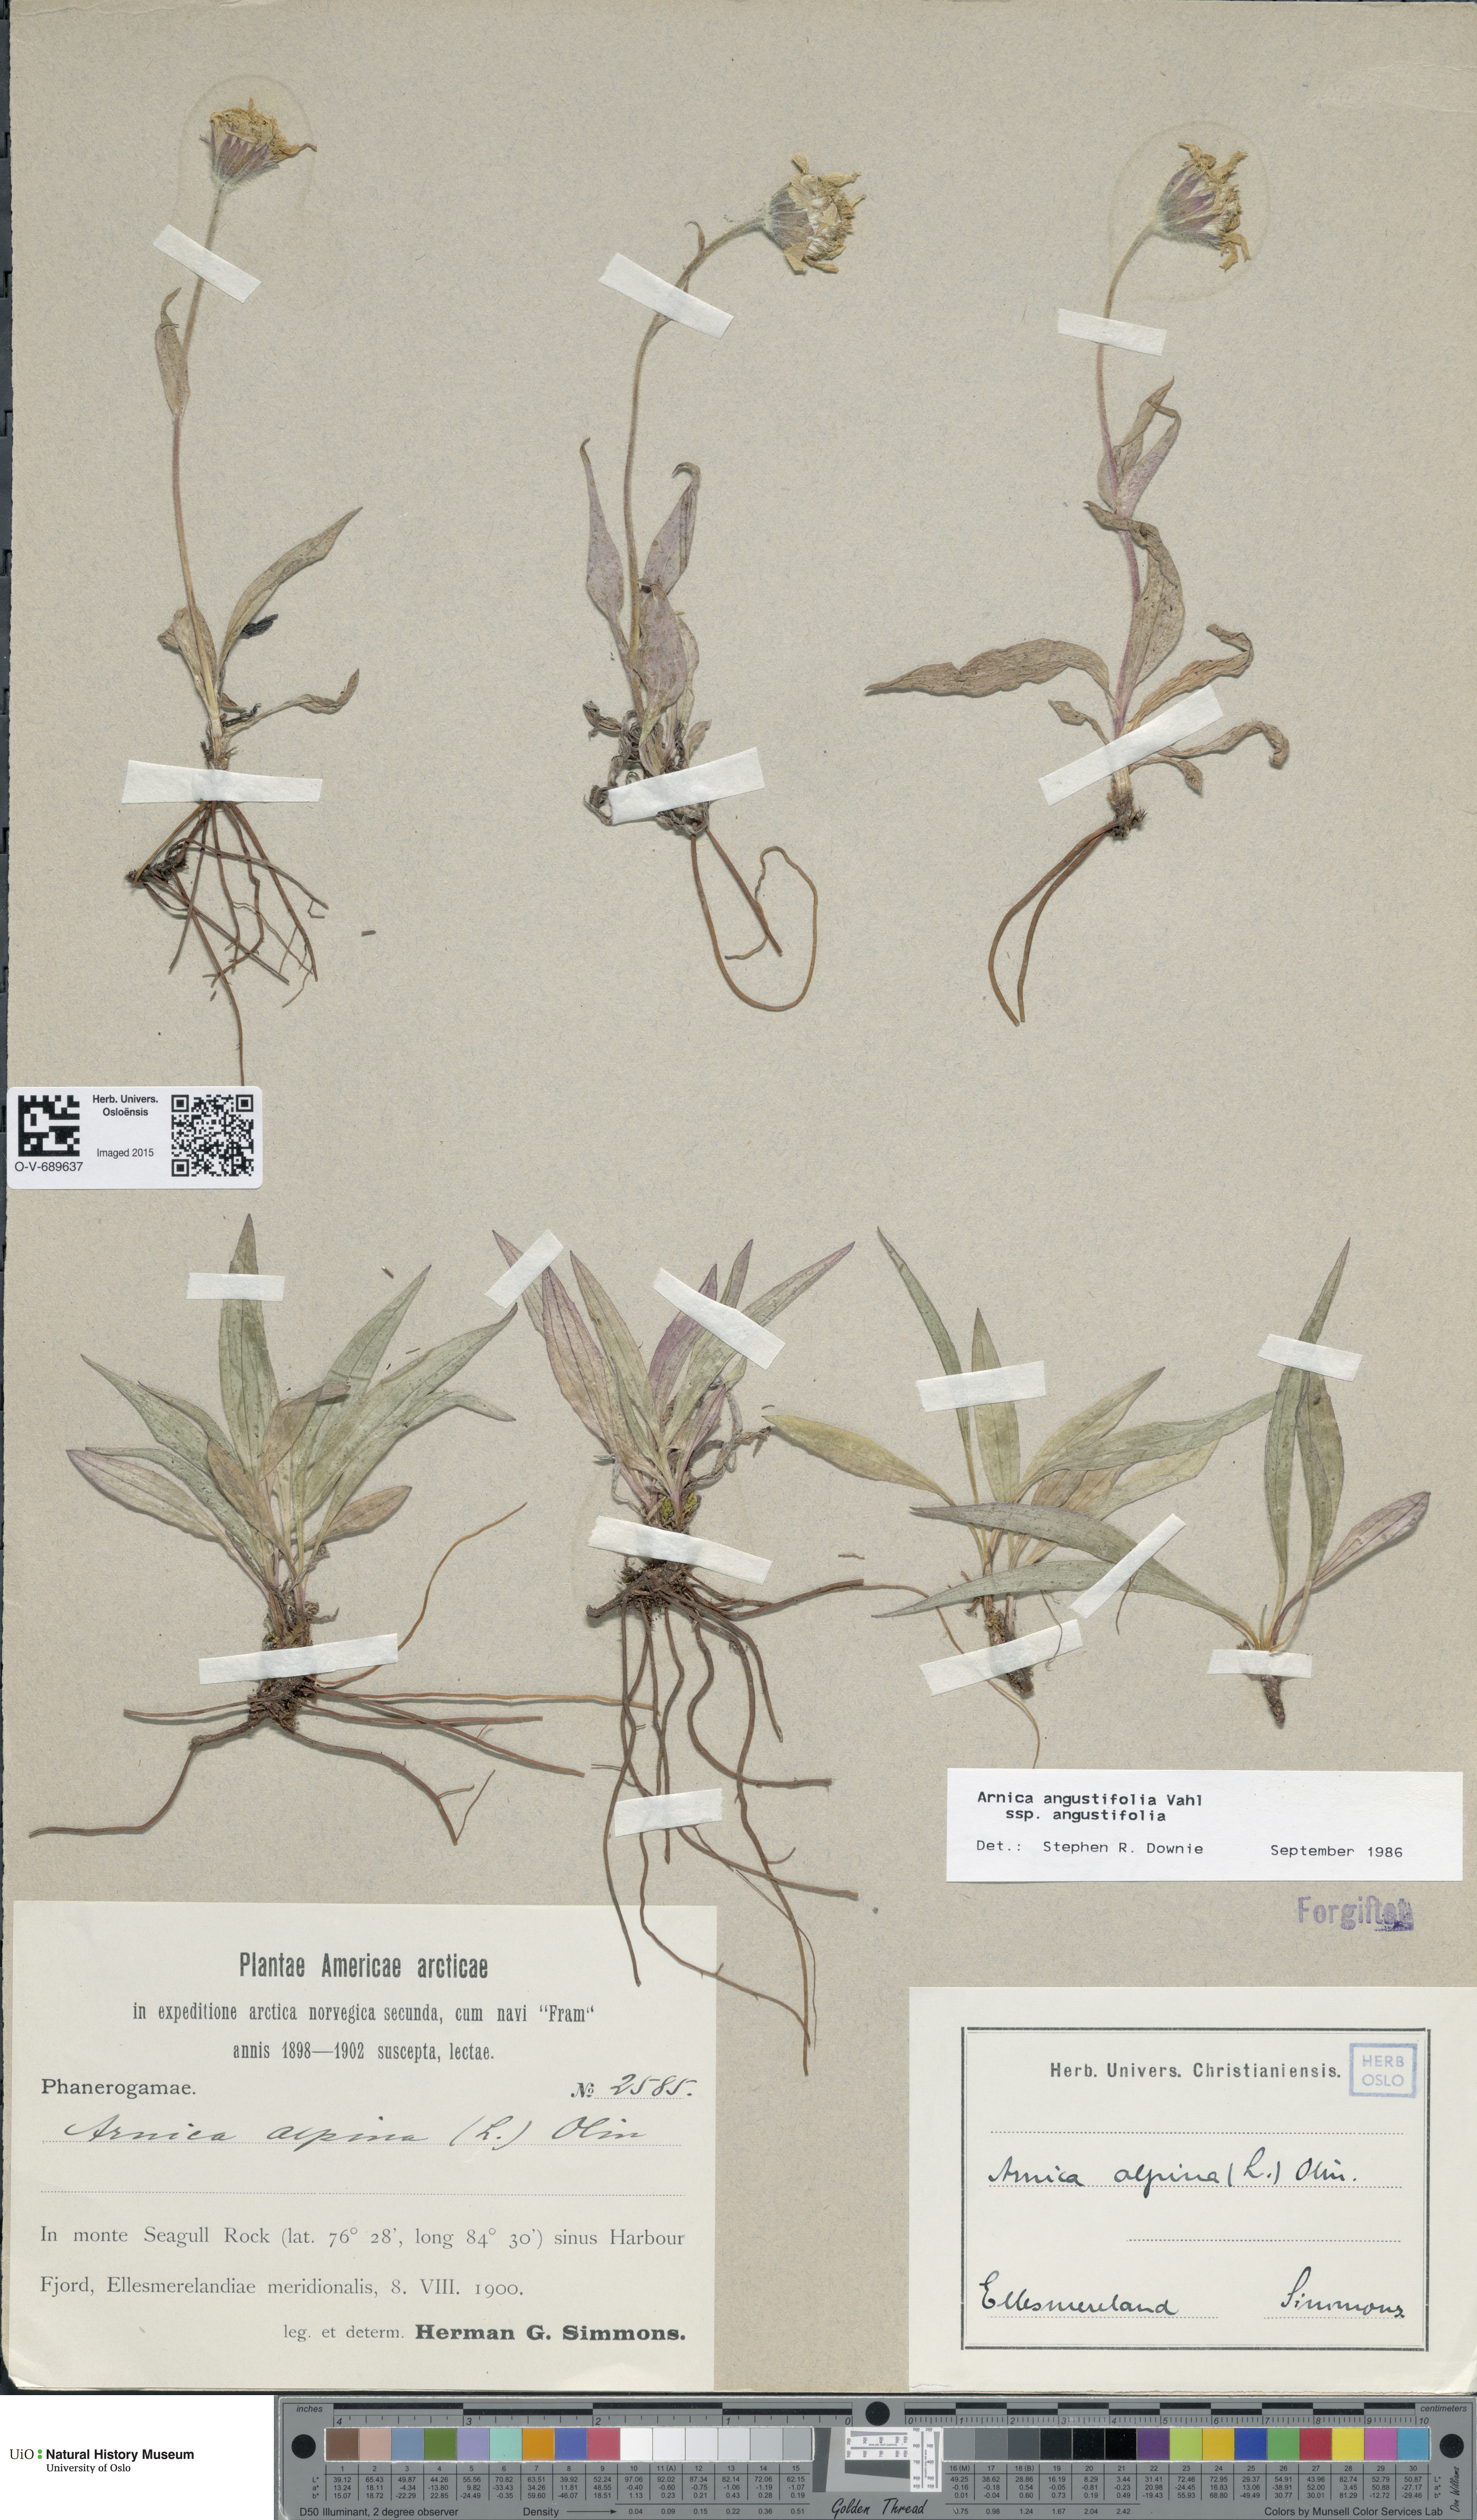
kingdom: Plantae
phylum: Tracheophyta
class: Magnoliopsida
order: Asterales
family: Asteraceae
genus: Arnica
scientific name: Arnica angustifolia
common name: Arctic arnica
